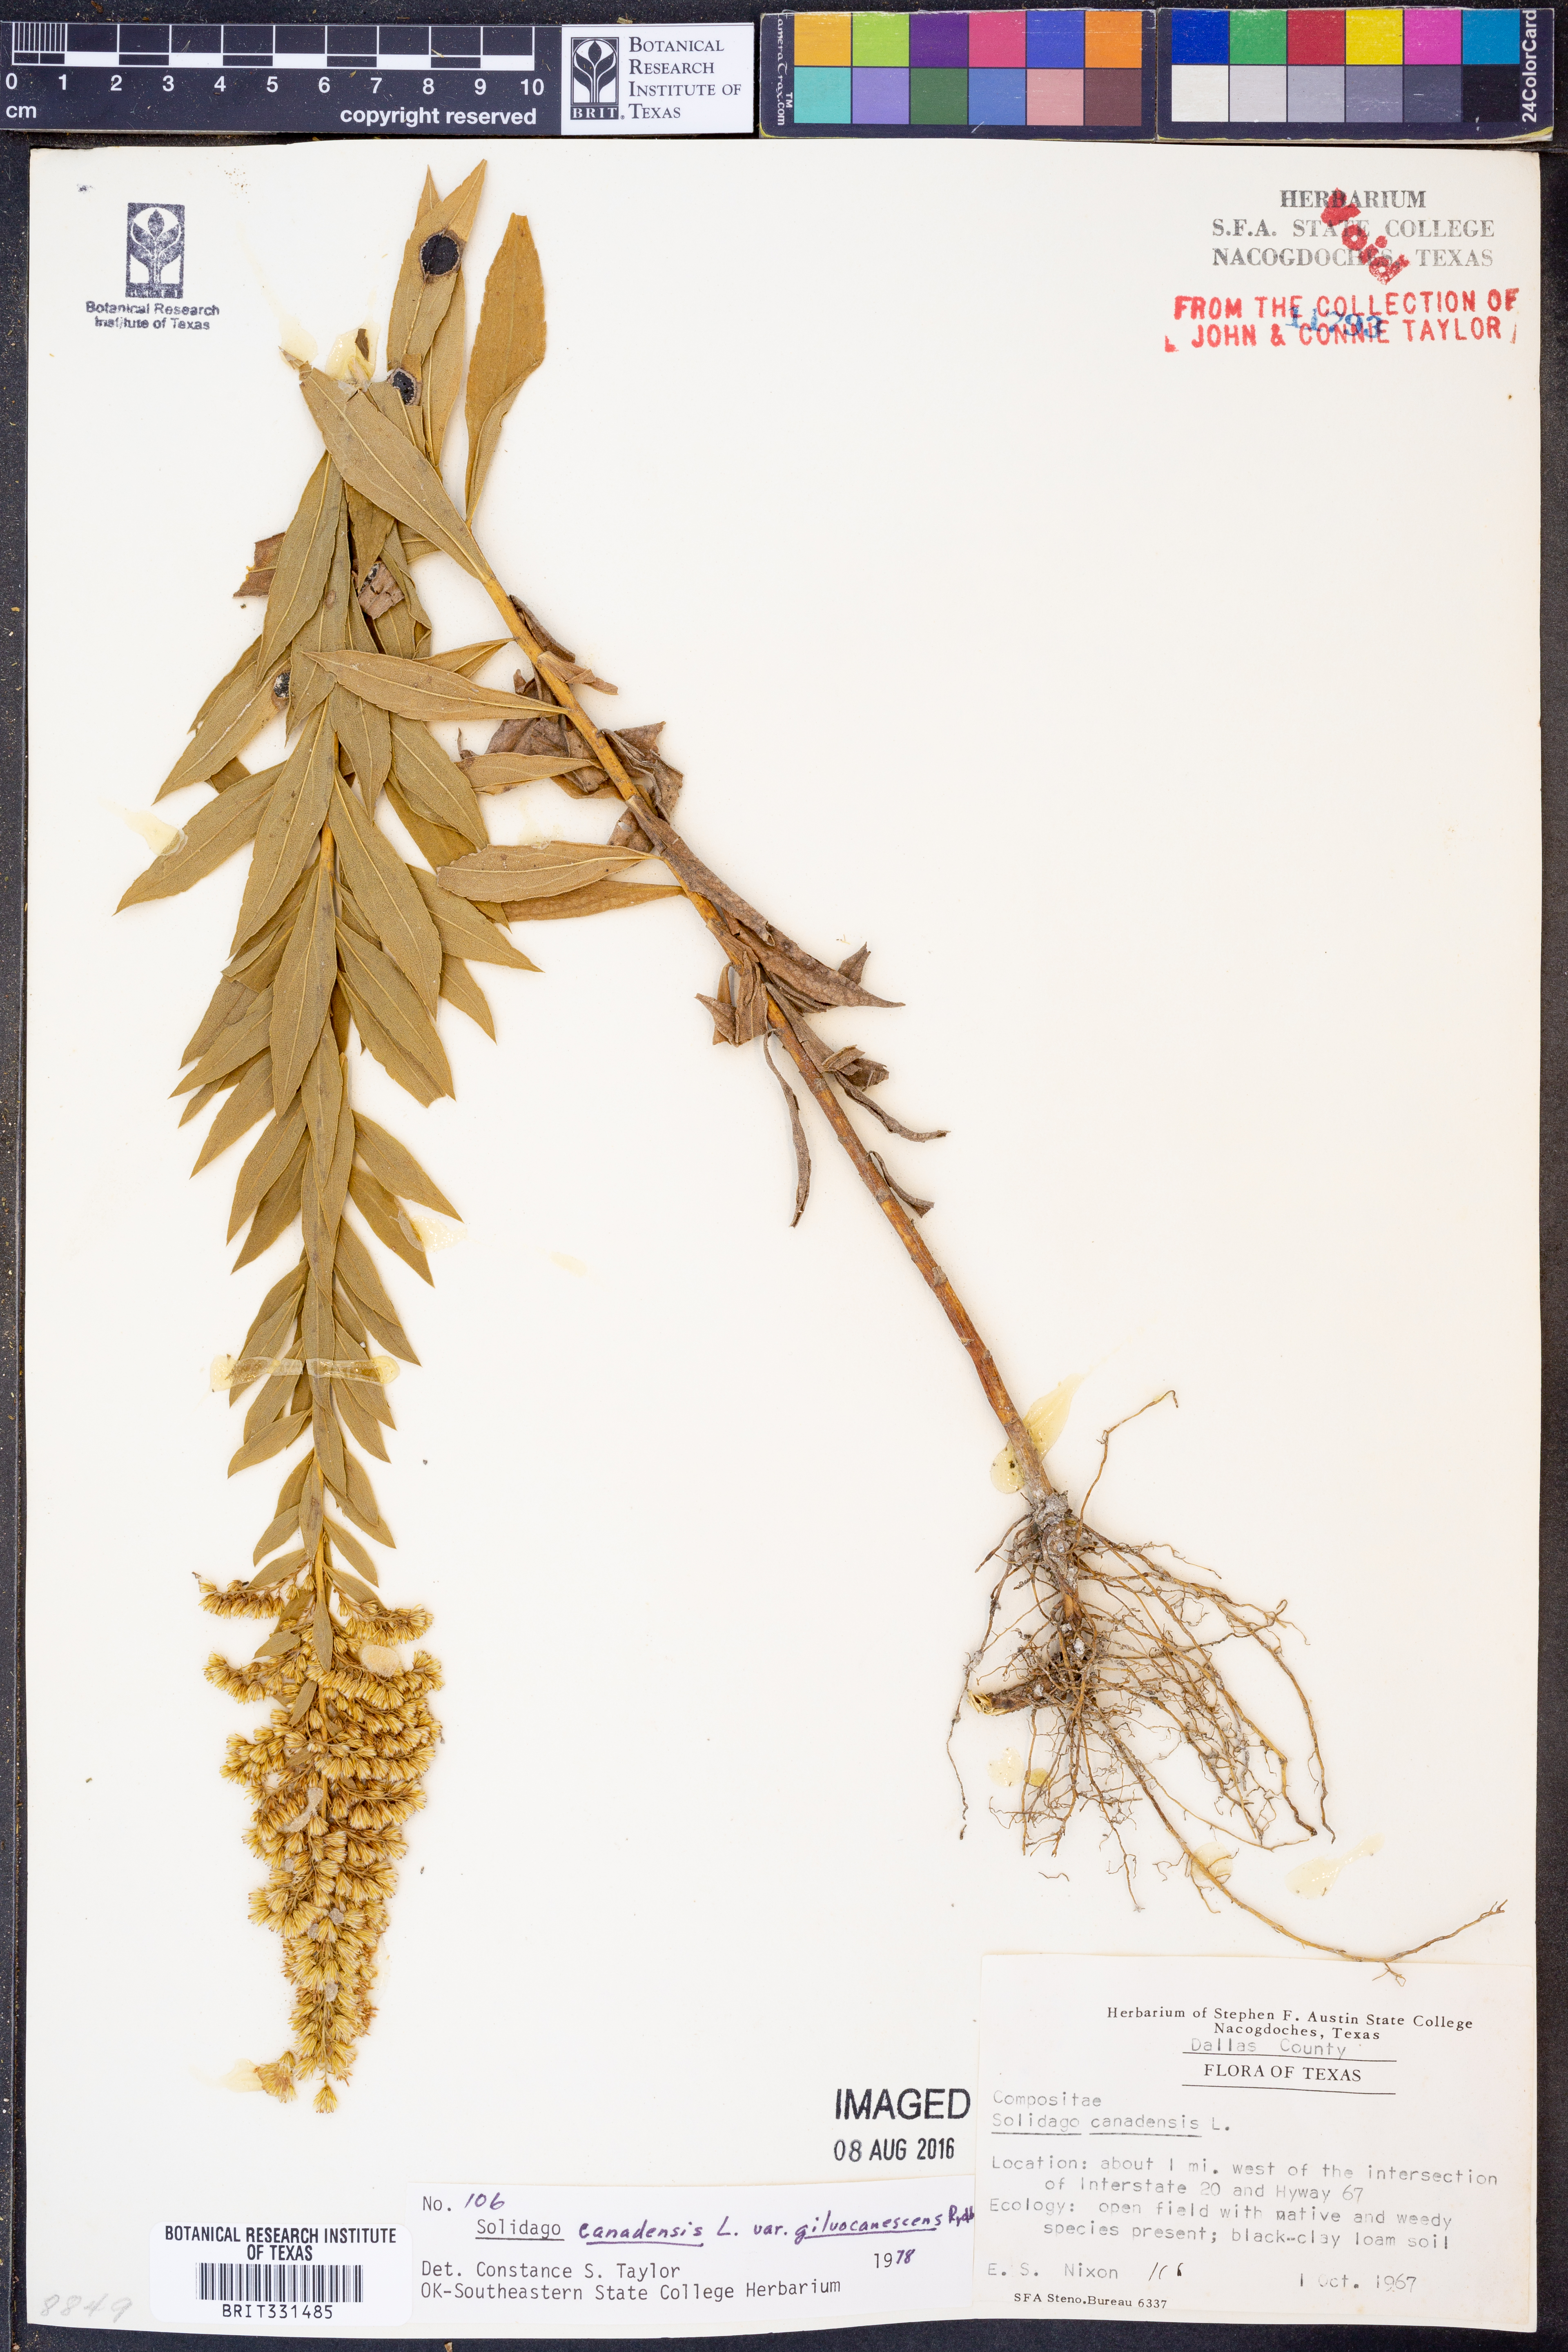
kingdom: Plantae
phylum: Tracheophyta
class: Magnoliopsida
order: Asterales
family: Asteraceae
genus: Solidago
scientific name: Solidago altissima
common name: Late goldenrod
